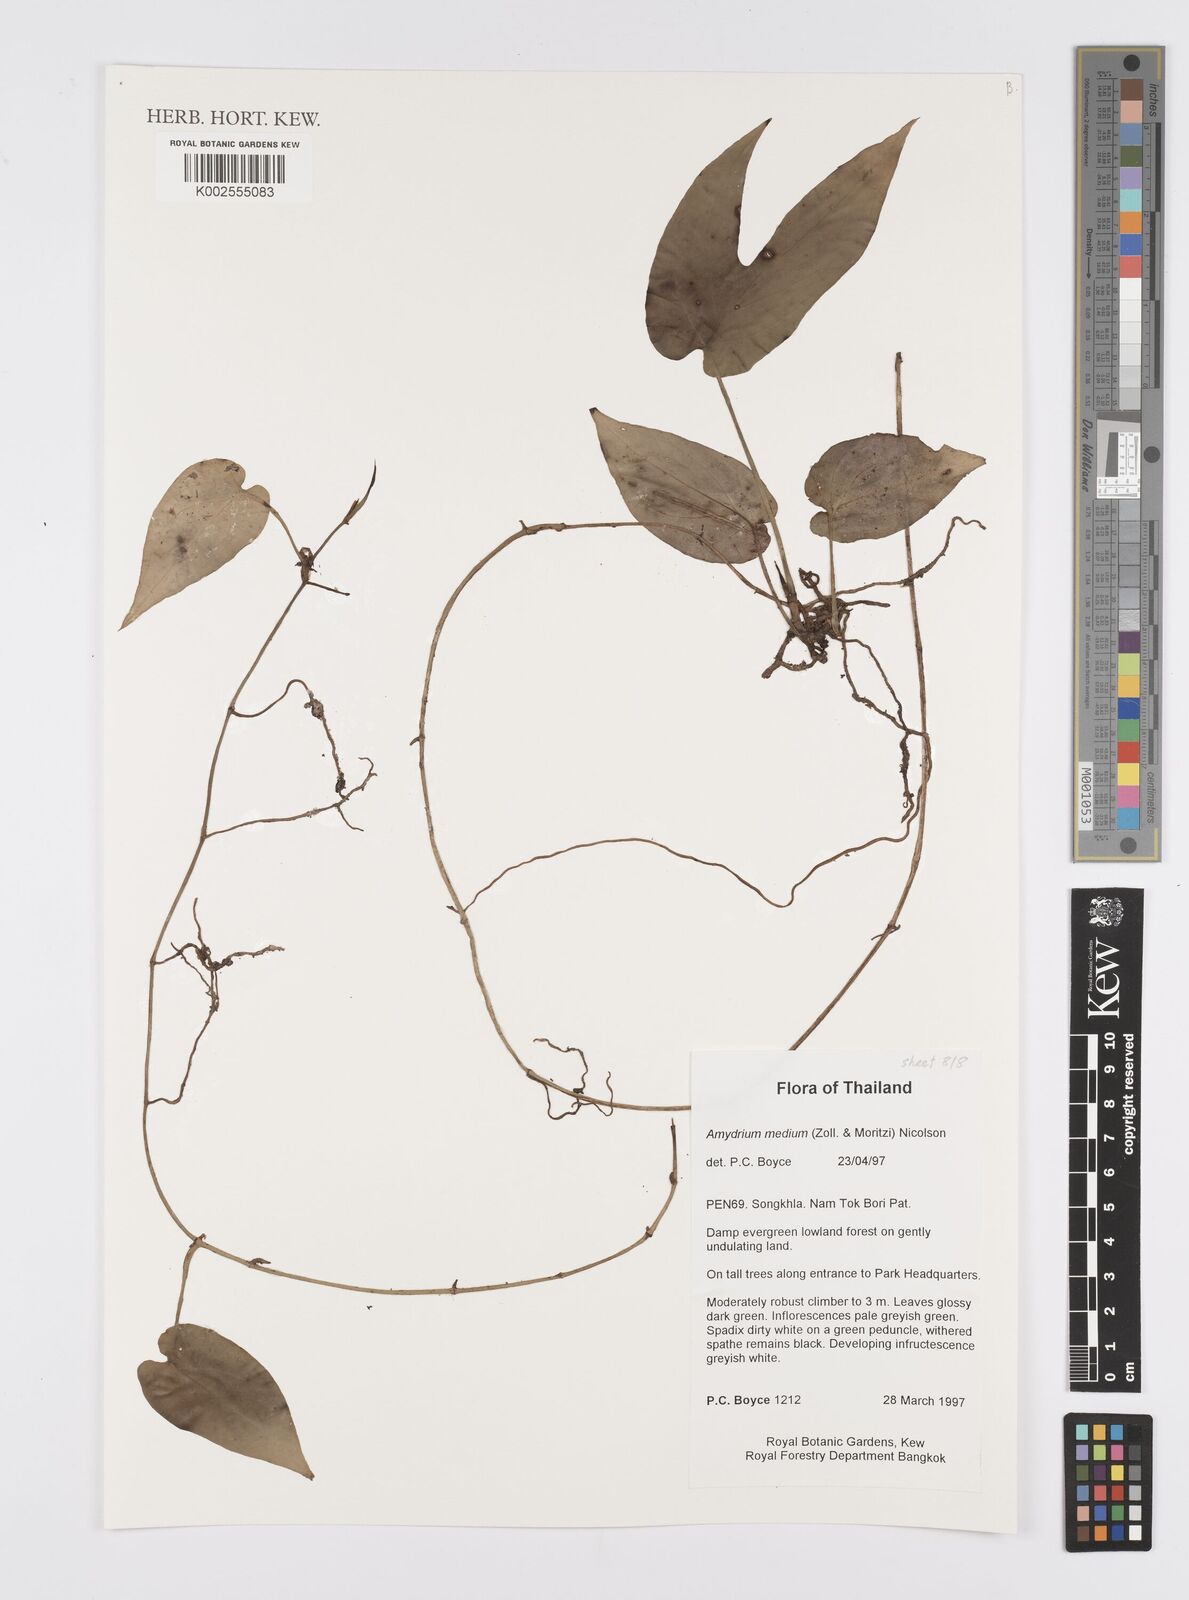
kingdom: Plantae
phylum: Tracheophyta
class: Liliopsida
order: Alismatales
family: Araceae
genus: Amydrium
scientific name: Amydrium medium
